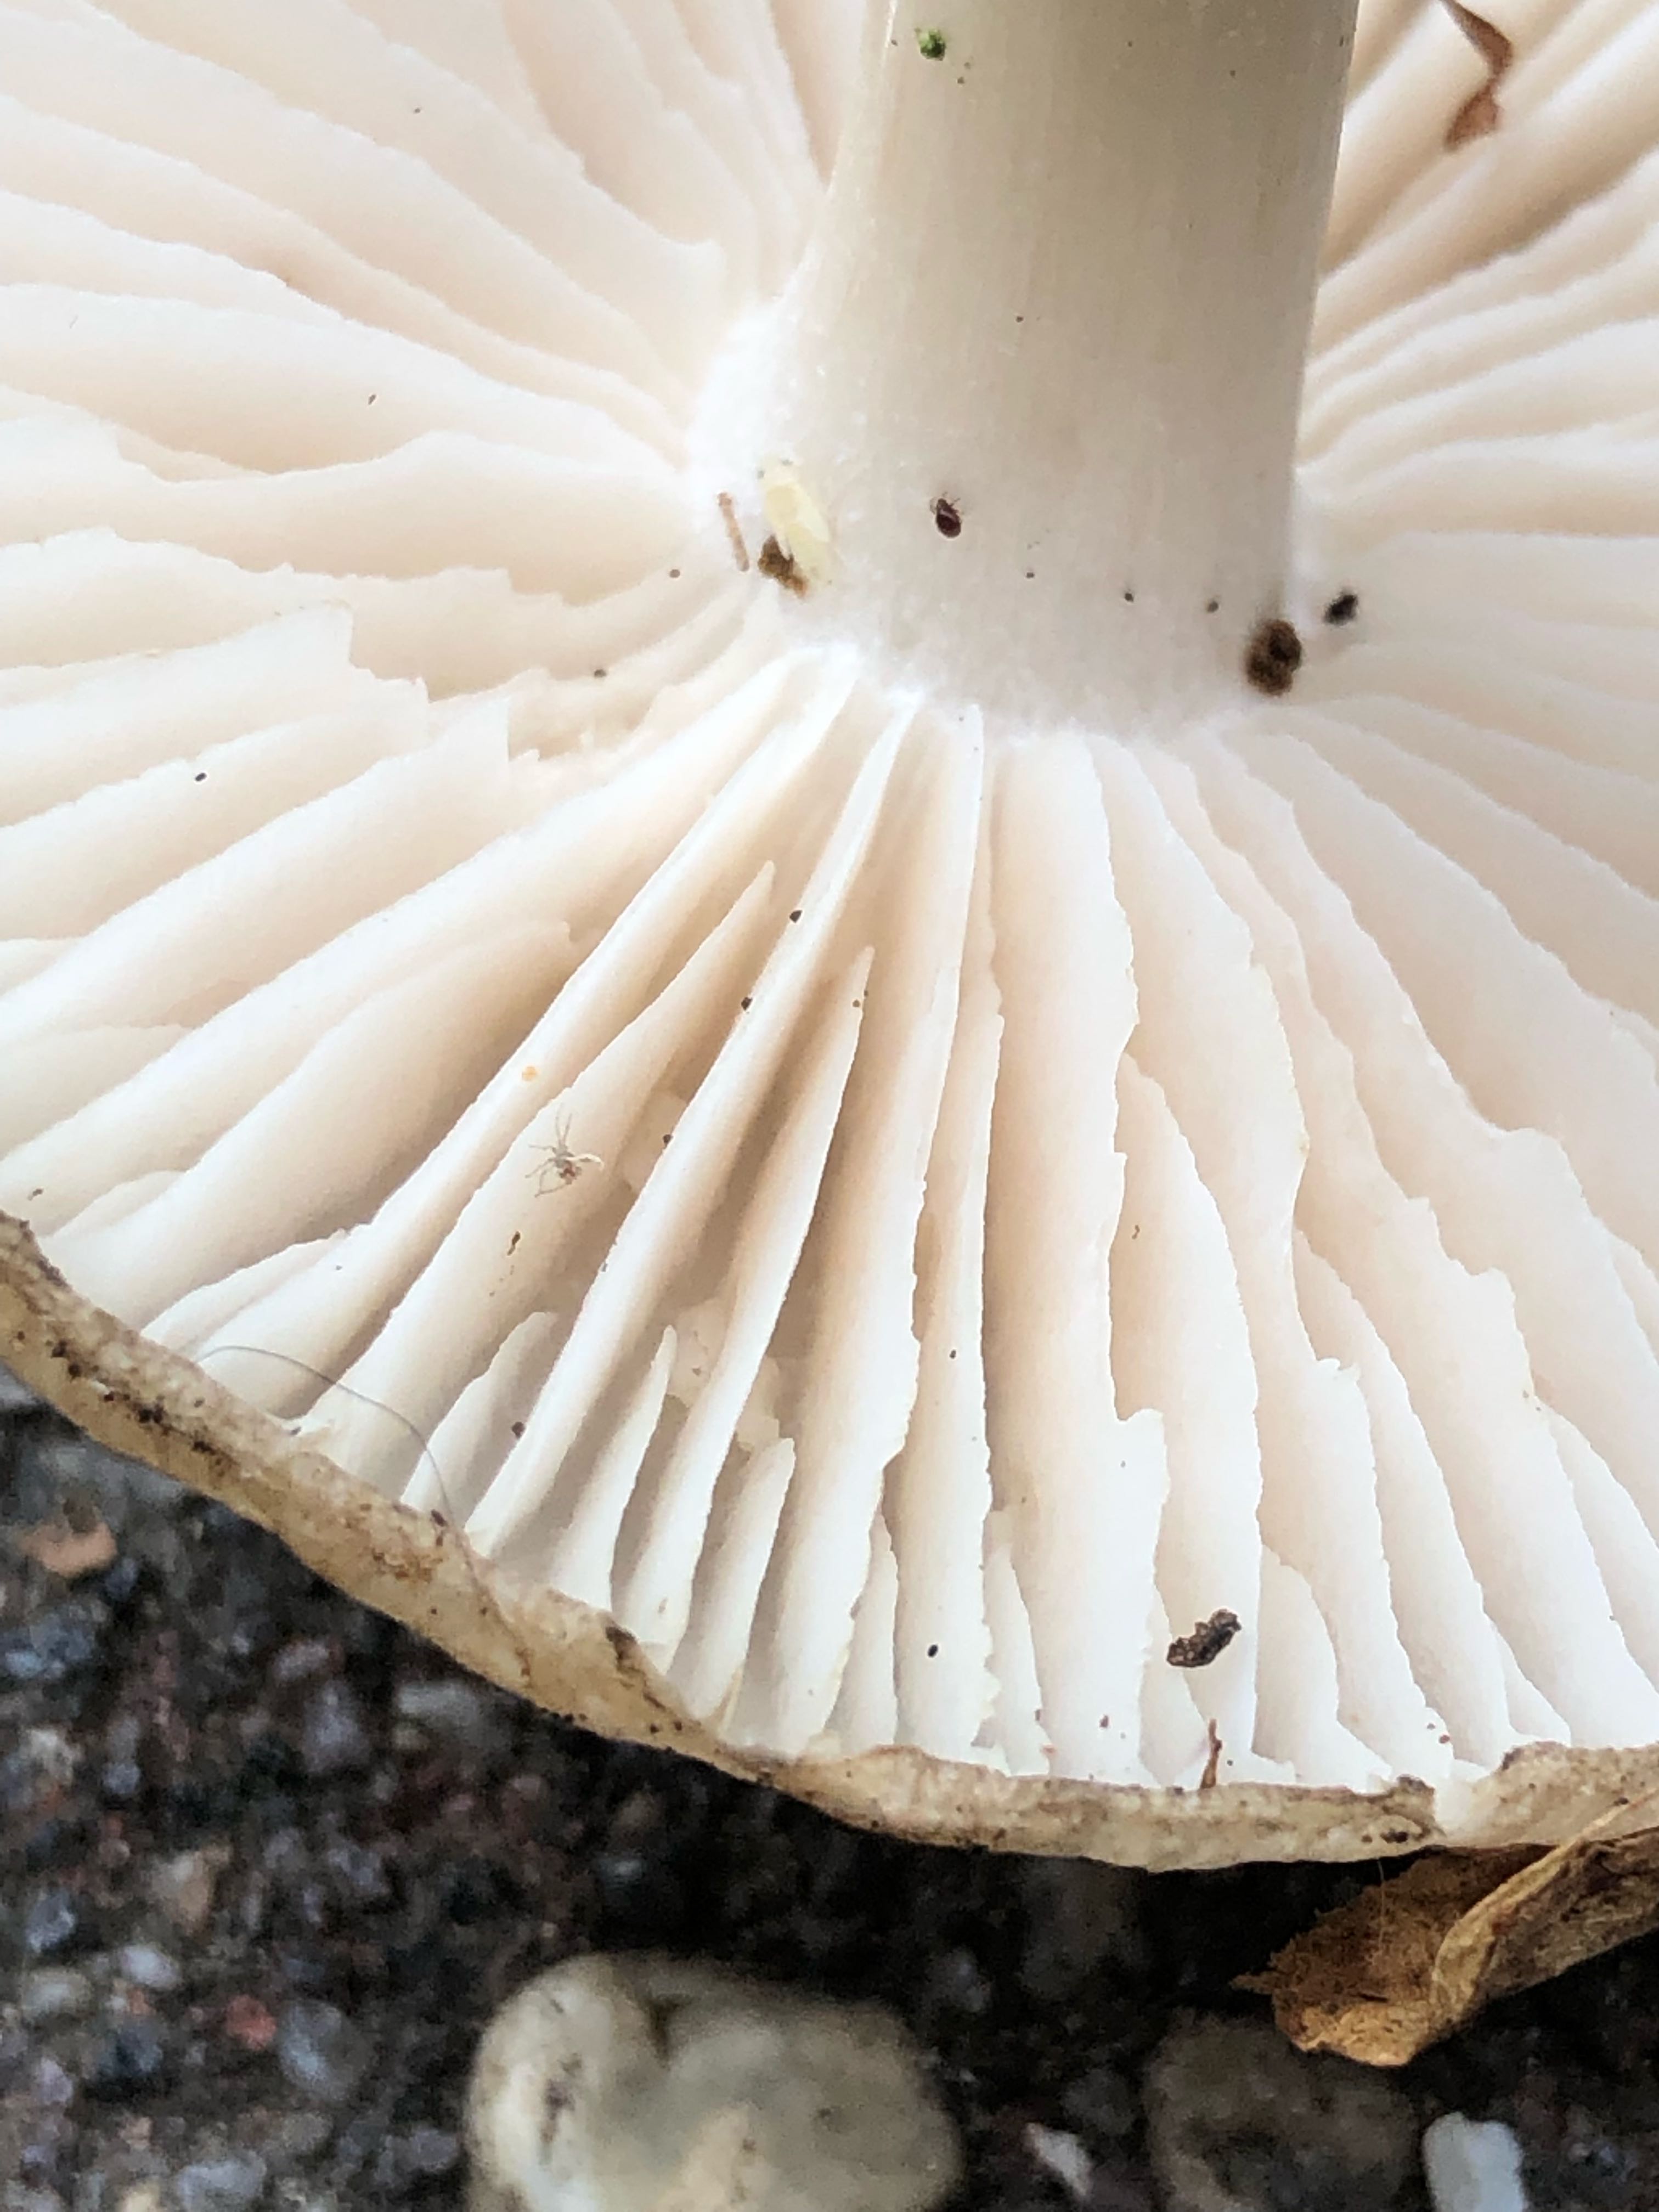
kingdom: Fungi
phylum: Basidiomycota
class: Agaricomycetes
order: Agaricales
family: Tricholomataceae
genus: Megacollybia
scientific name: Megacollybia platyphylla
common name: bredbladet væbnerhat
